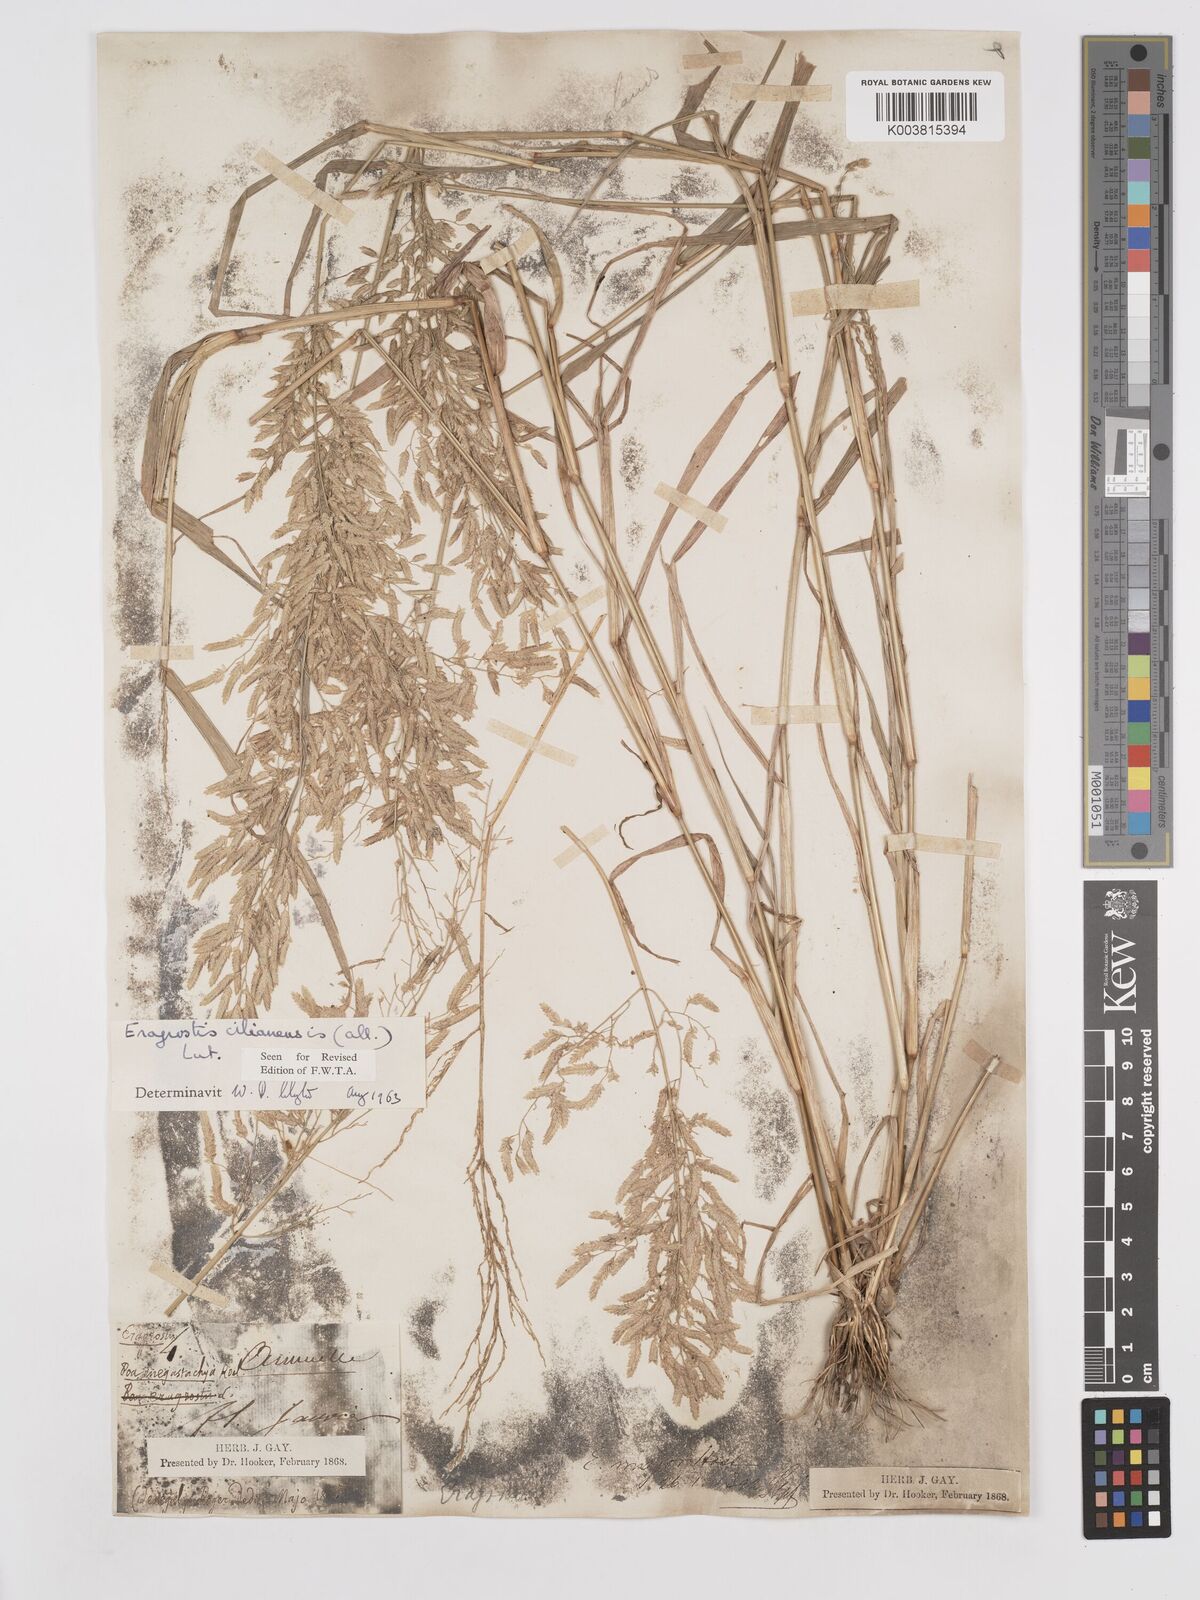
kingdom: Plantae
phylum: Tracheophyta
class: Liliopsida
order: Poales
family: Poaceae
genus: Eragrostis
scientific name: Eragrostis cilianensis
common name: Stinkgrass
